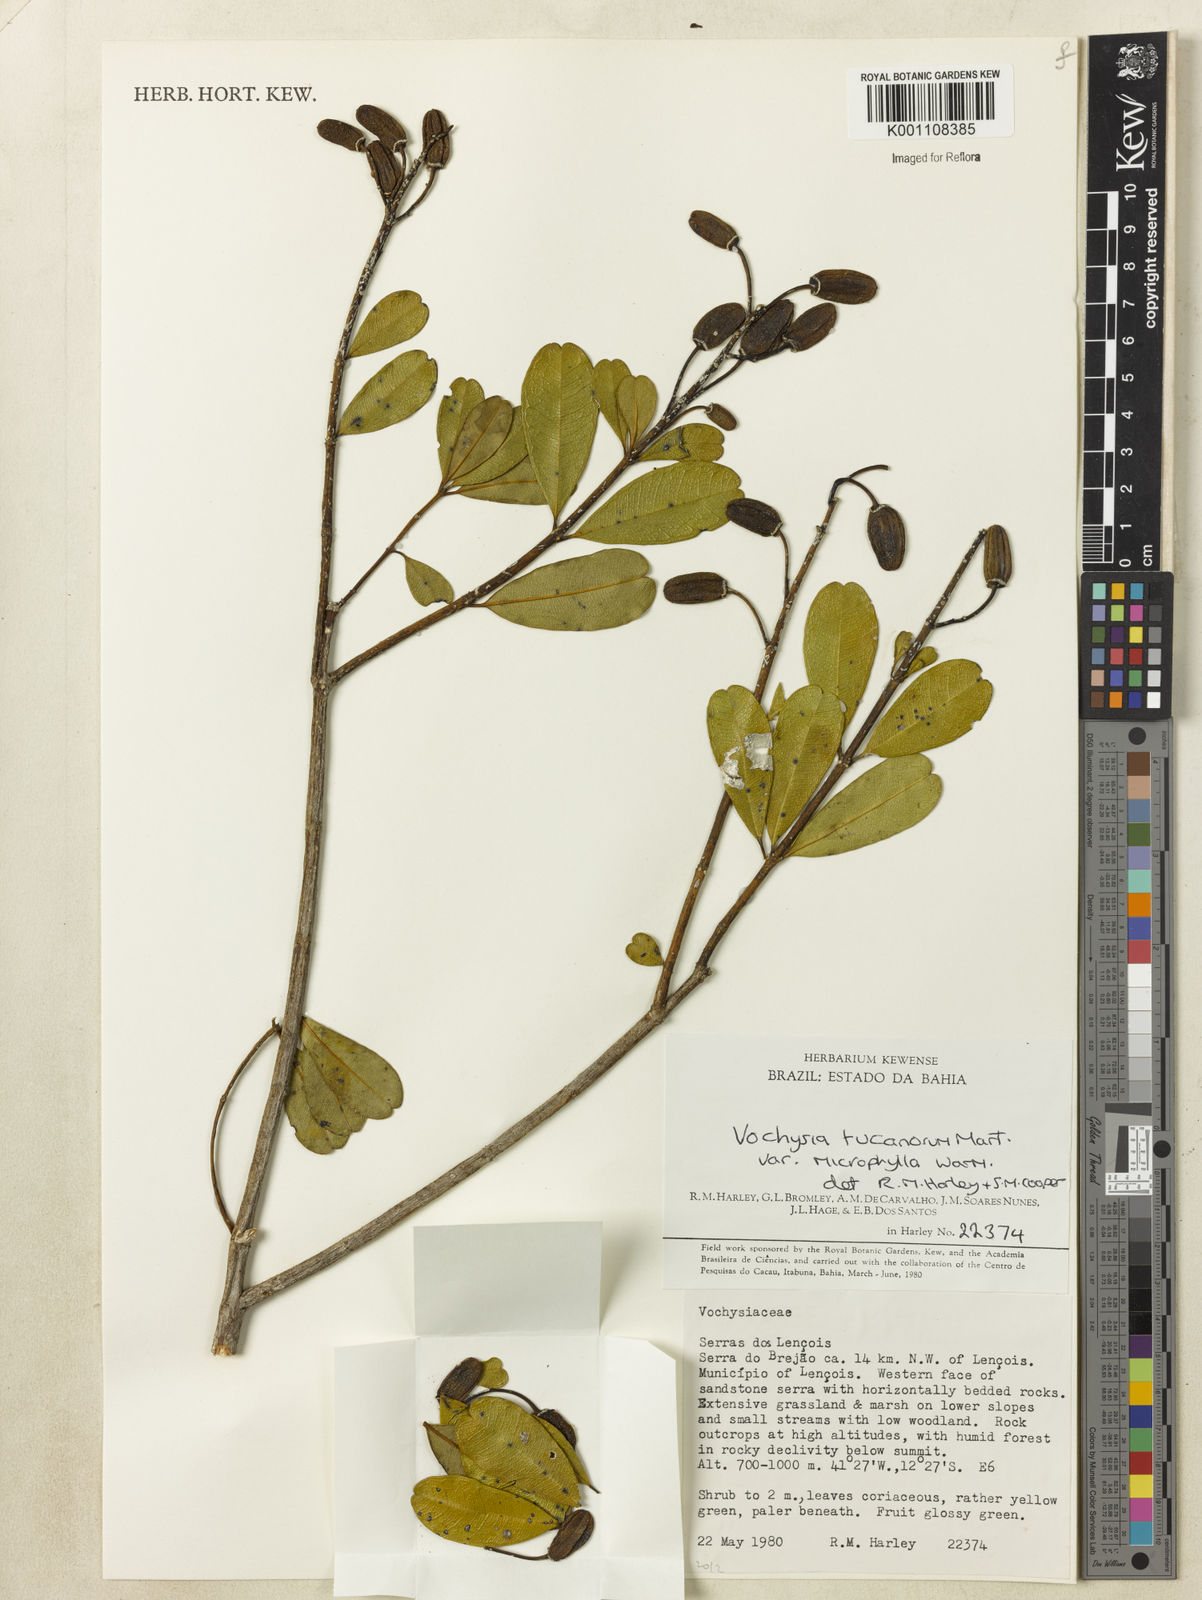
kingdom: Plantae
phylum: Tracheophyta
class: Magnoliopsida
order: Myrtales
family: Vochysiaceae
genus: Vochysia
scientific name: Vochysia tucanorum
